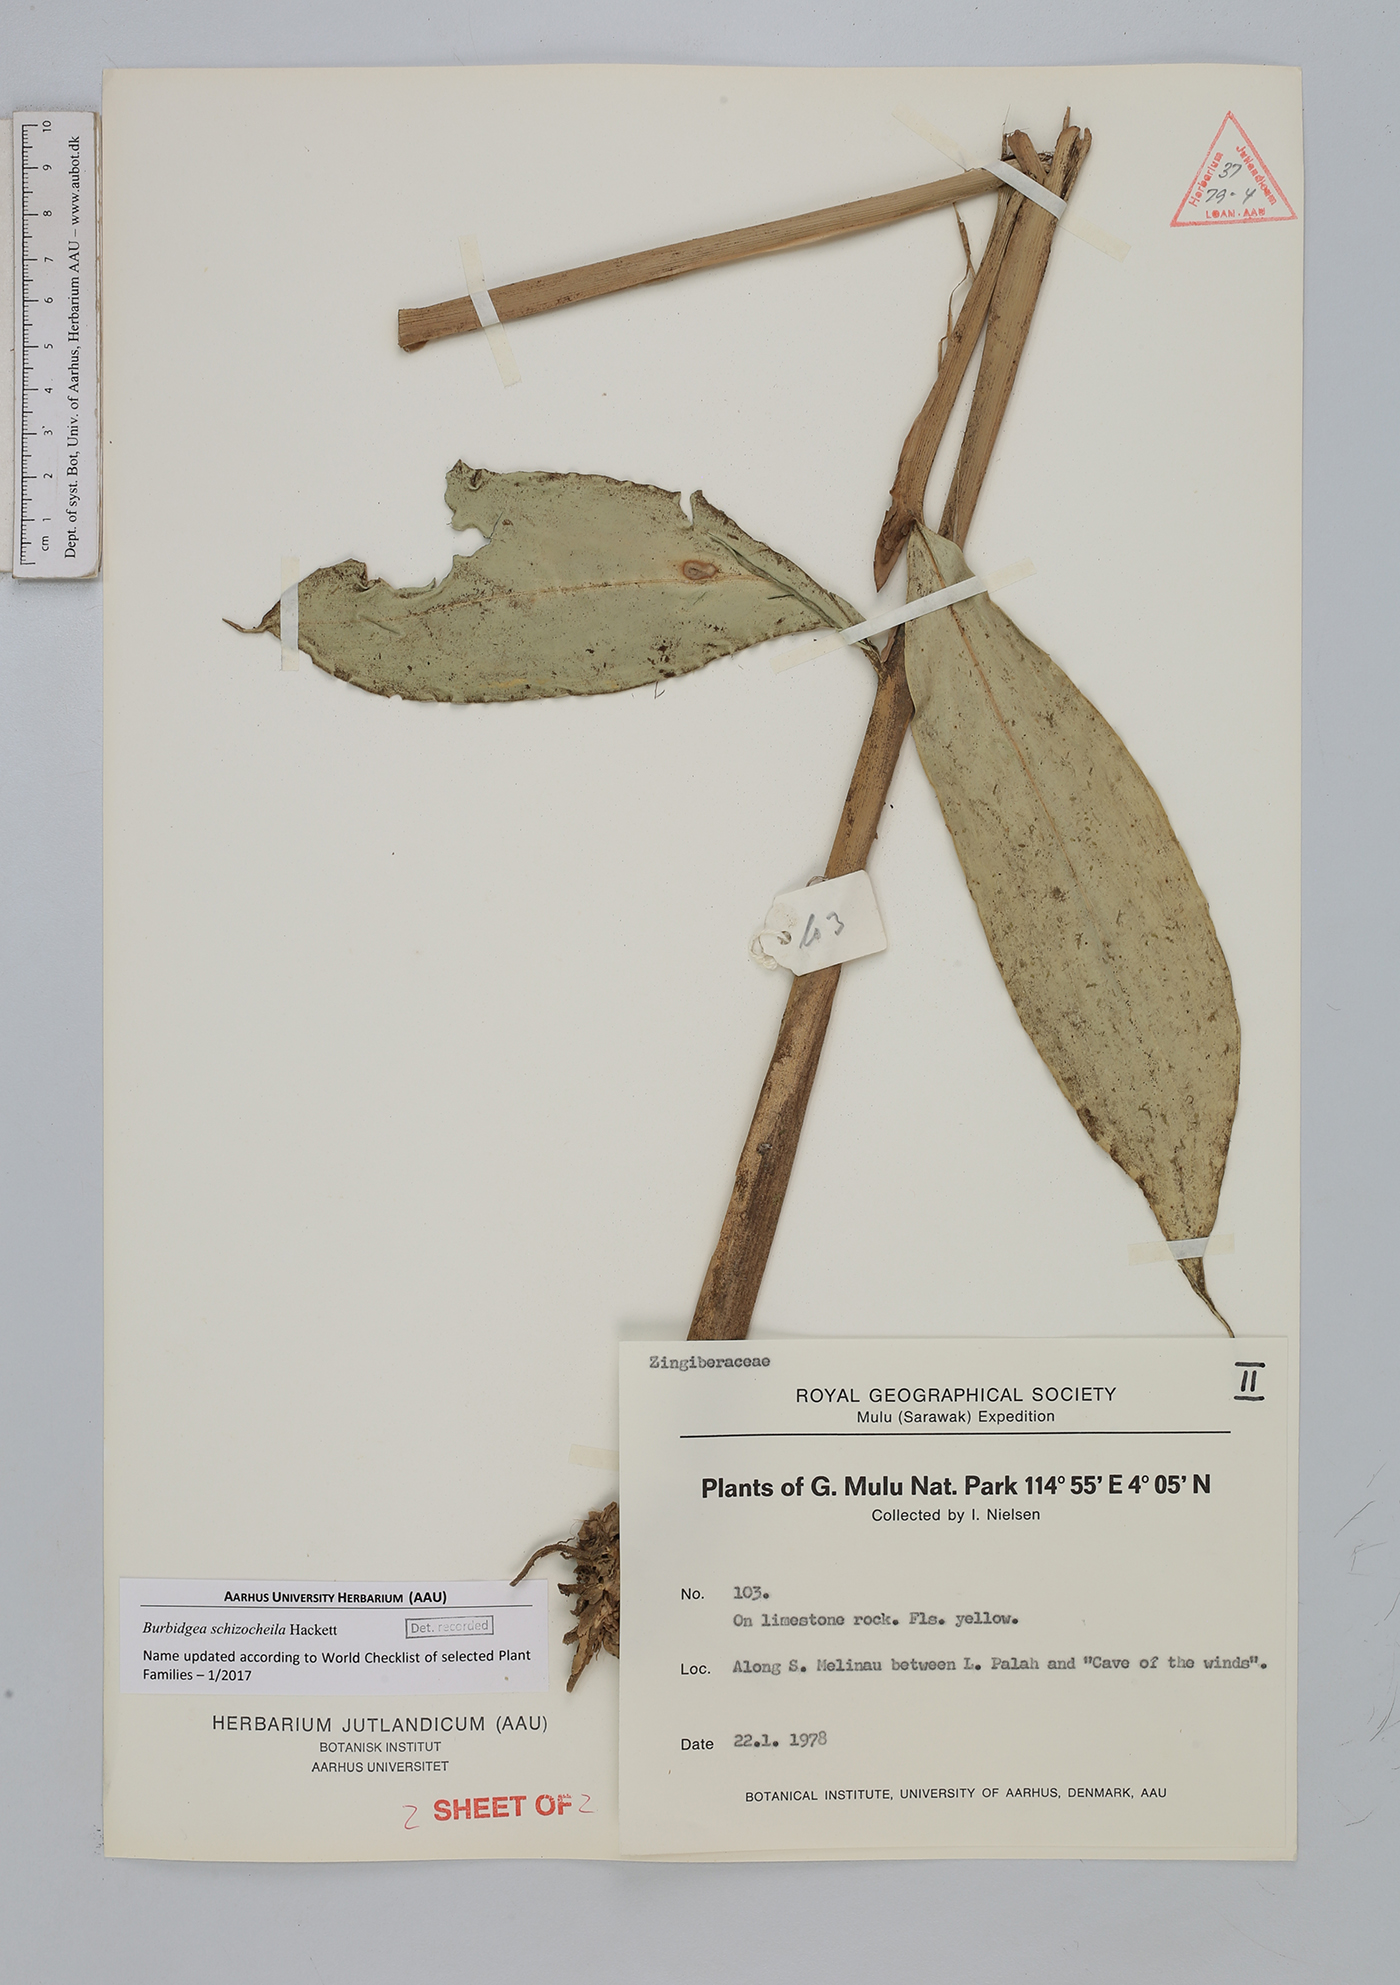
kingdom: Plantae
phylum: Tracheophyta
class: Liliopsida
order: Zingiberales
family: Zingiberaceae
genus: Burbidgea
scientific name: Burbidgea schizocheila
